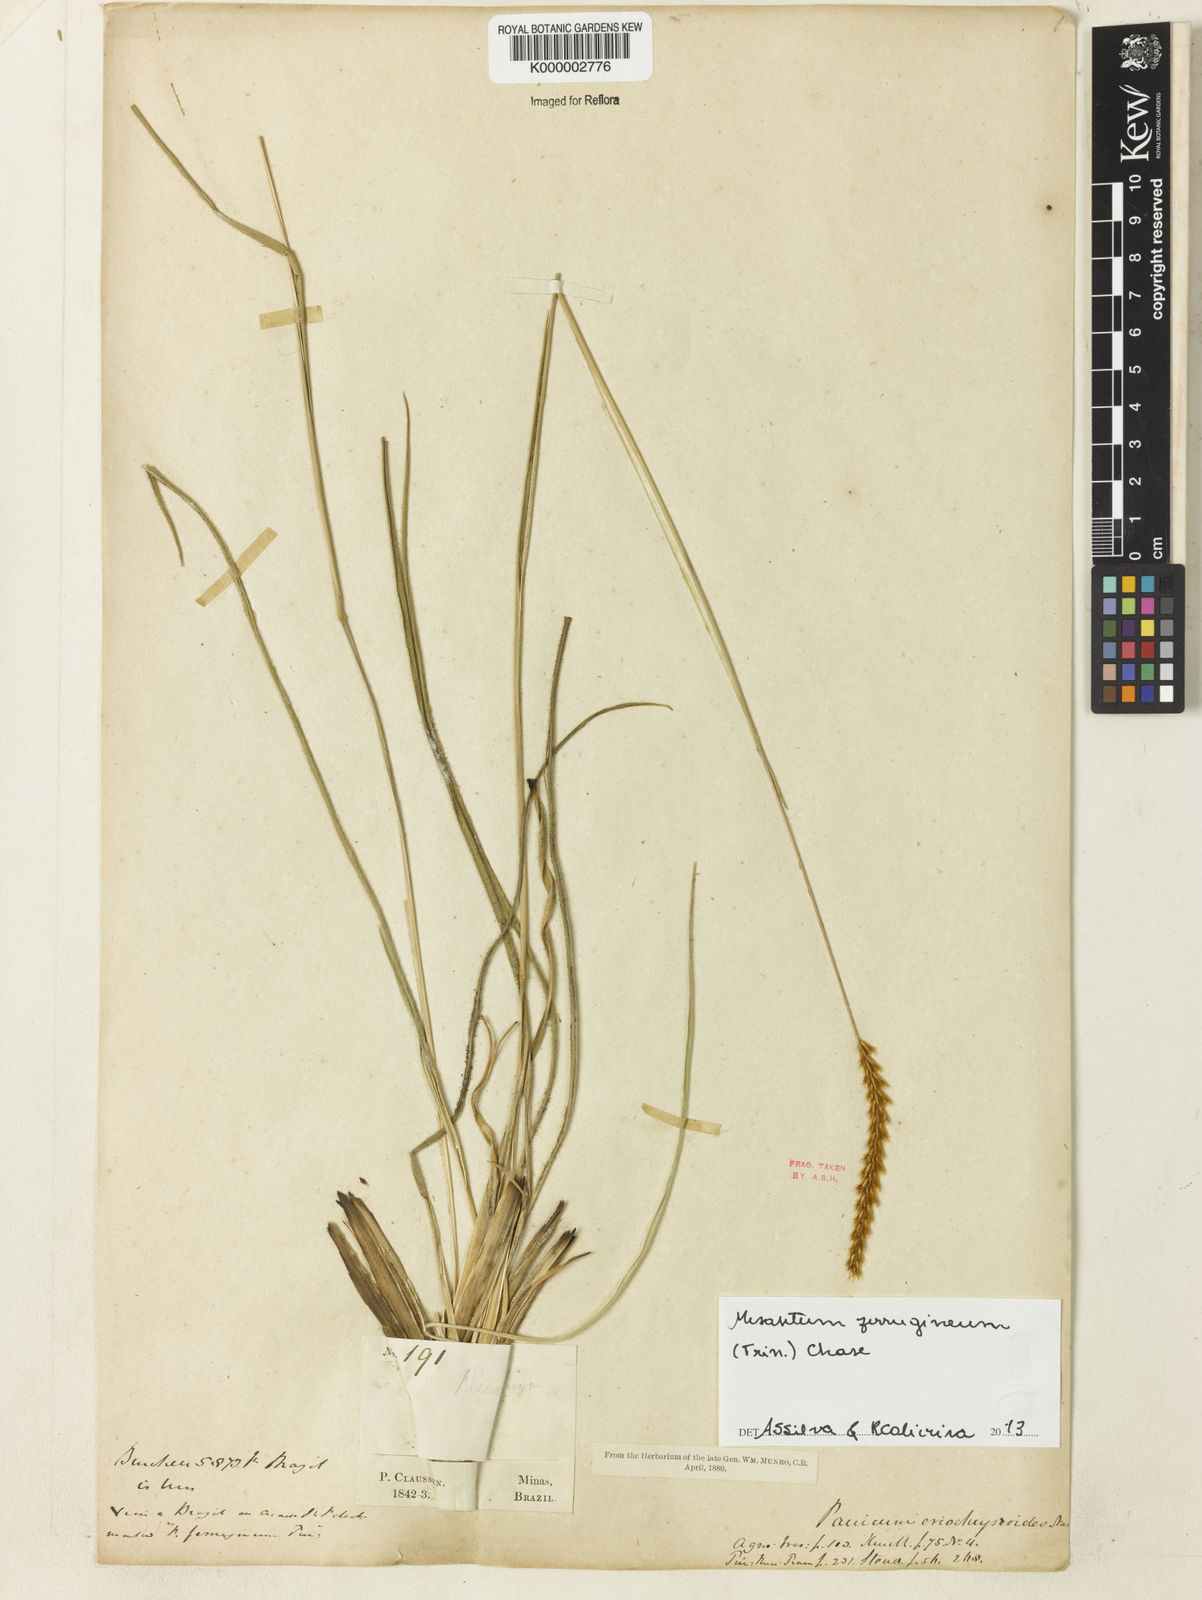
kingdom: Plantae
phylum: Tracheophyta
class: Liliopsida
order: Poales
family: Poaceae
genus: Panicum
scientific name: Panicum
